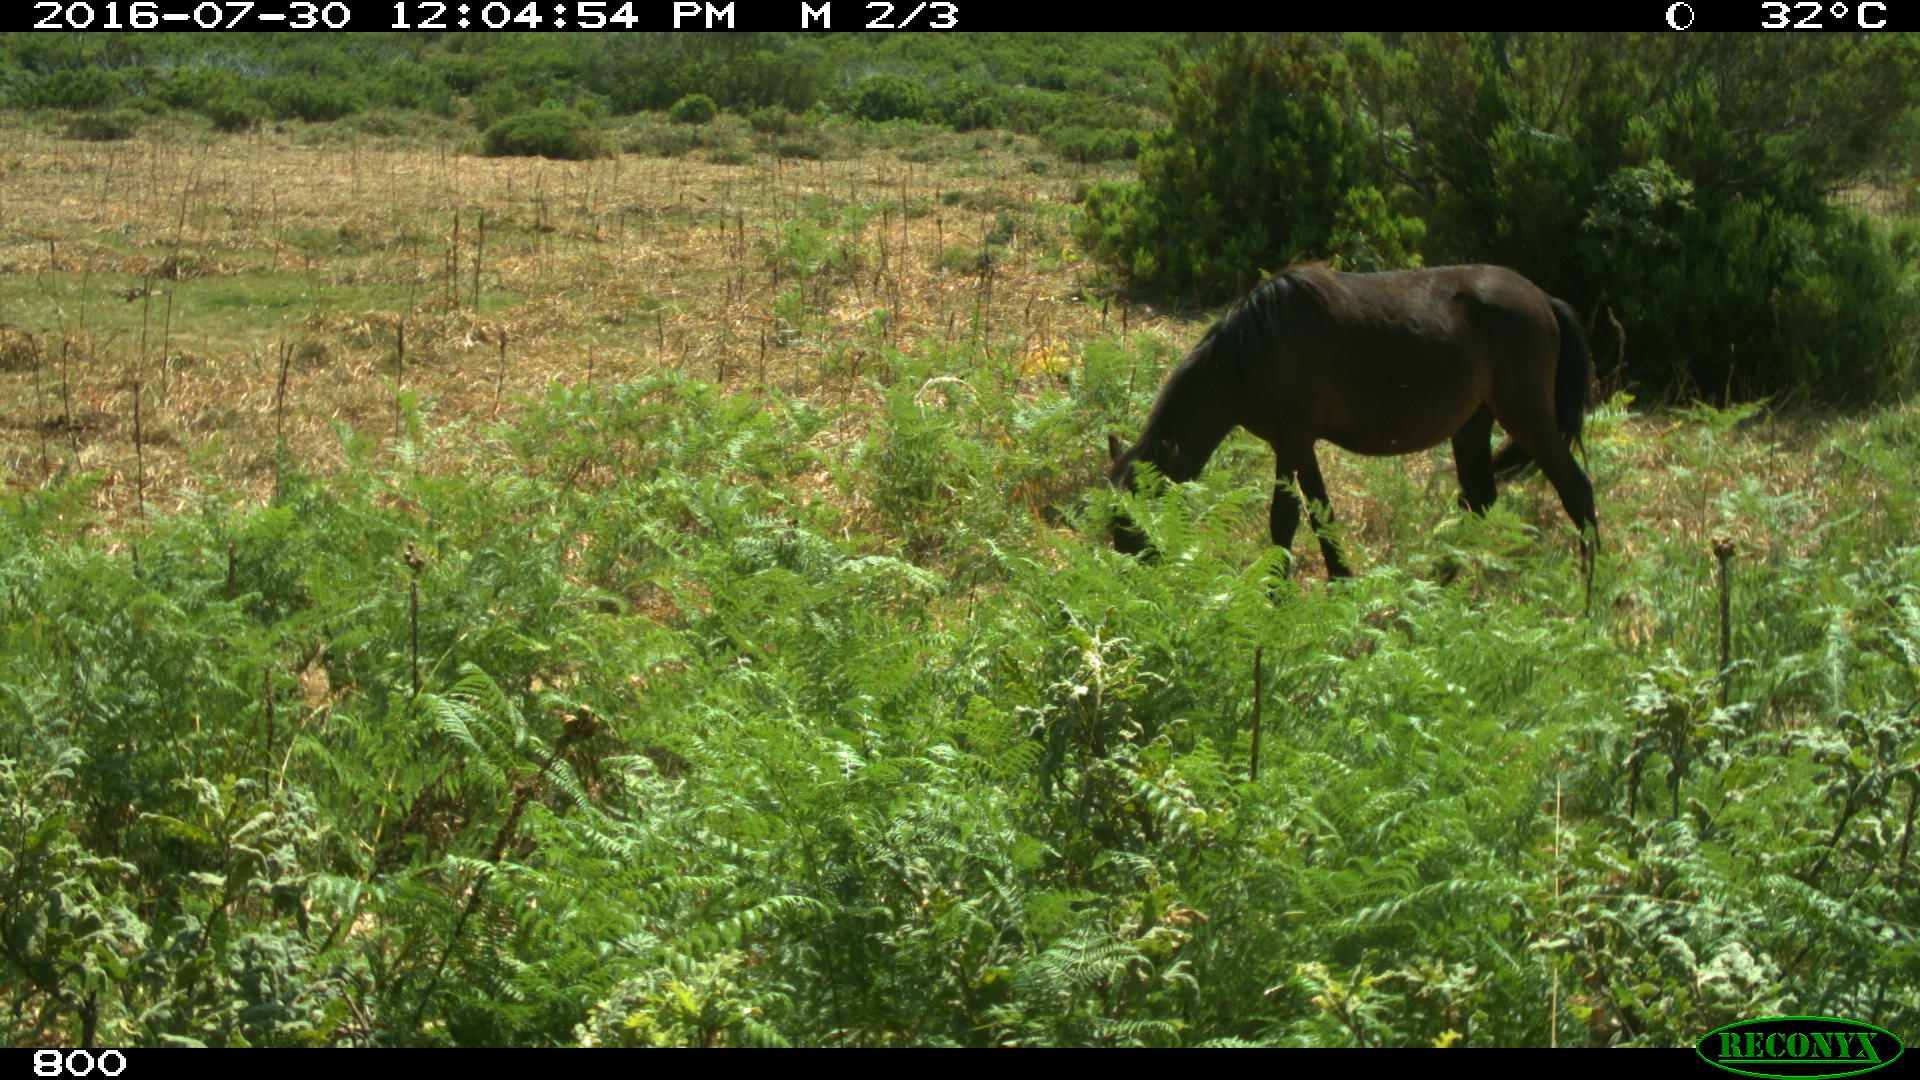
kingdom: Animalia
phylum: Chordata
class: Mammalia
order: Perissodactyla
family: Equidae
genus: Equus
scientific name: Equus caballus
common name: Horse
